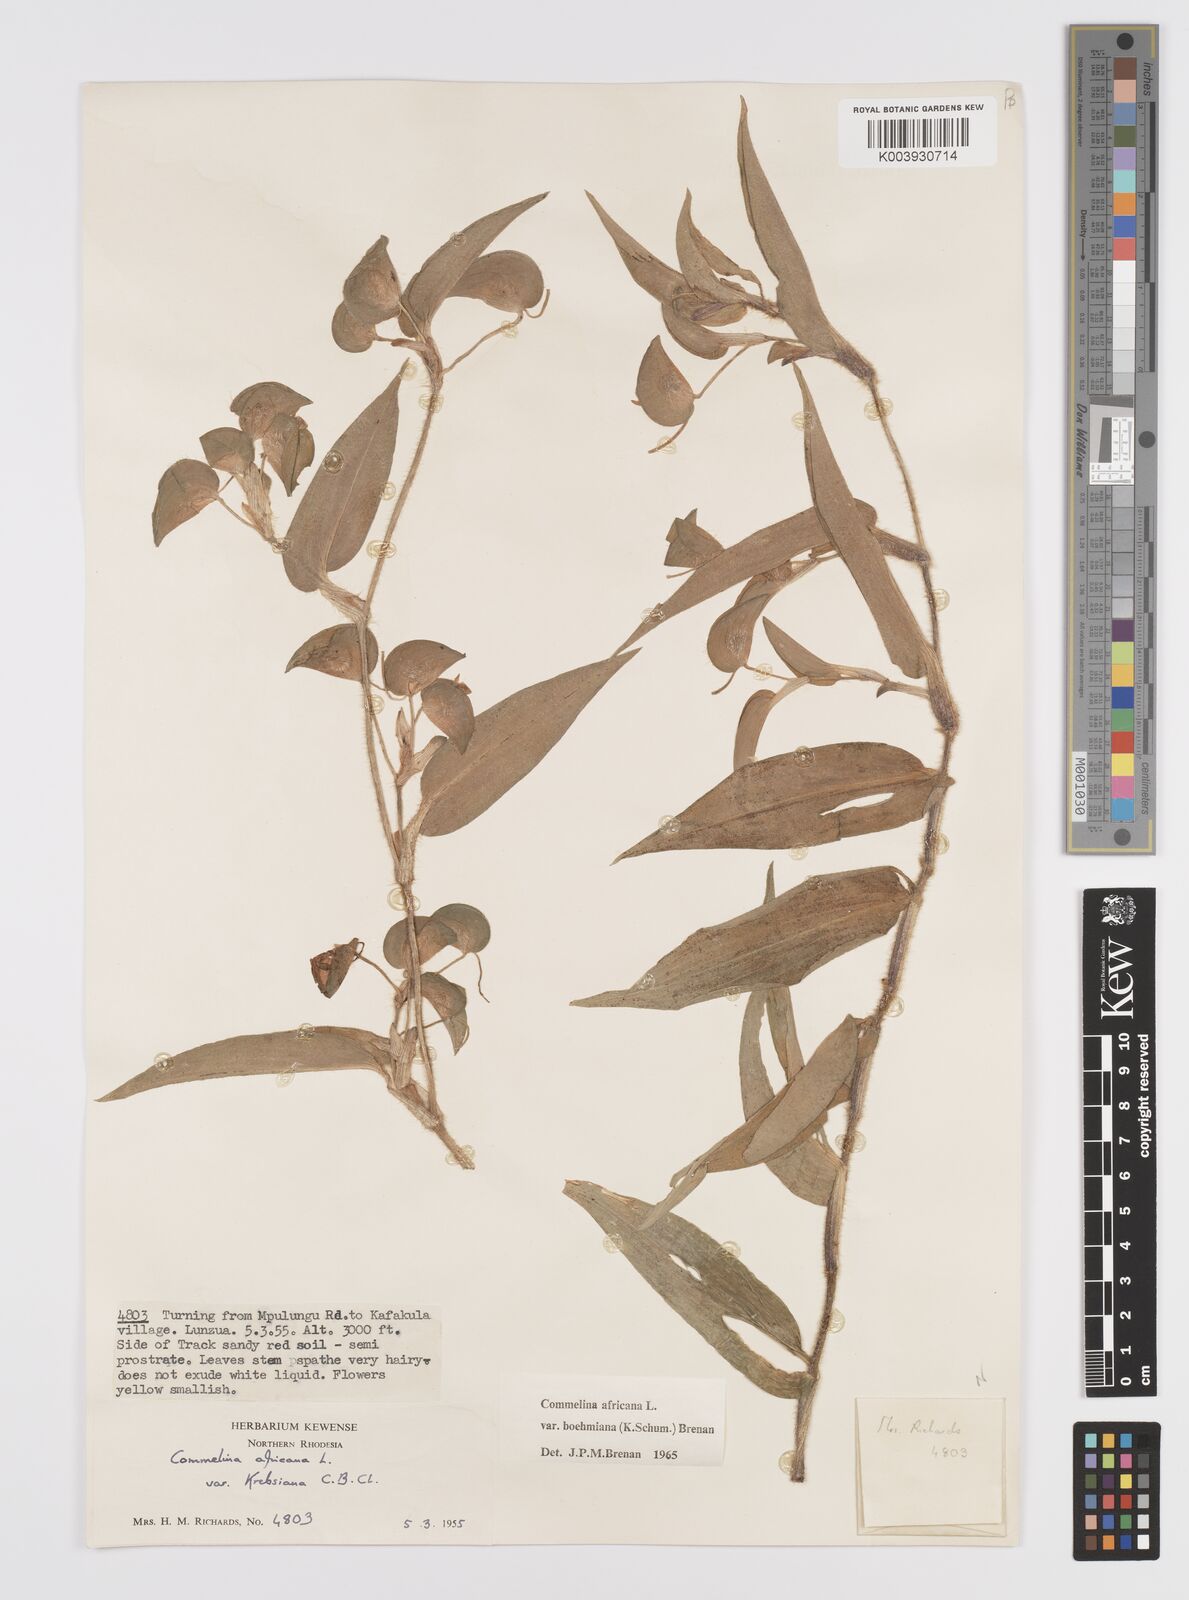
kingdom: Plantae
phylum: Tracheophyta
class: Liliopsida
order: Commelinales
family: Commelinaceae
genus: Commelina
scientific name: Commelina africana
